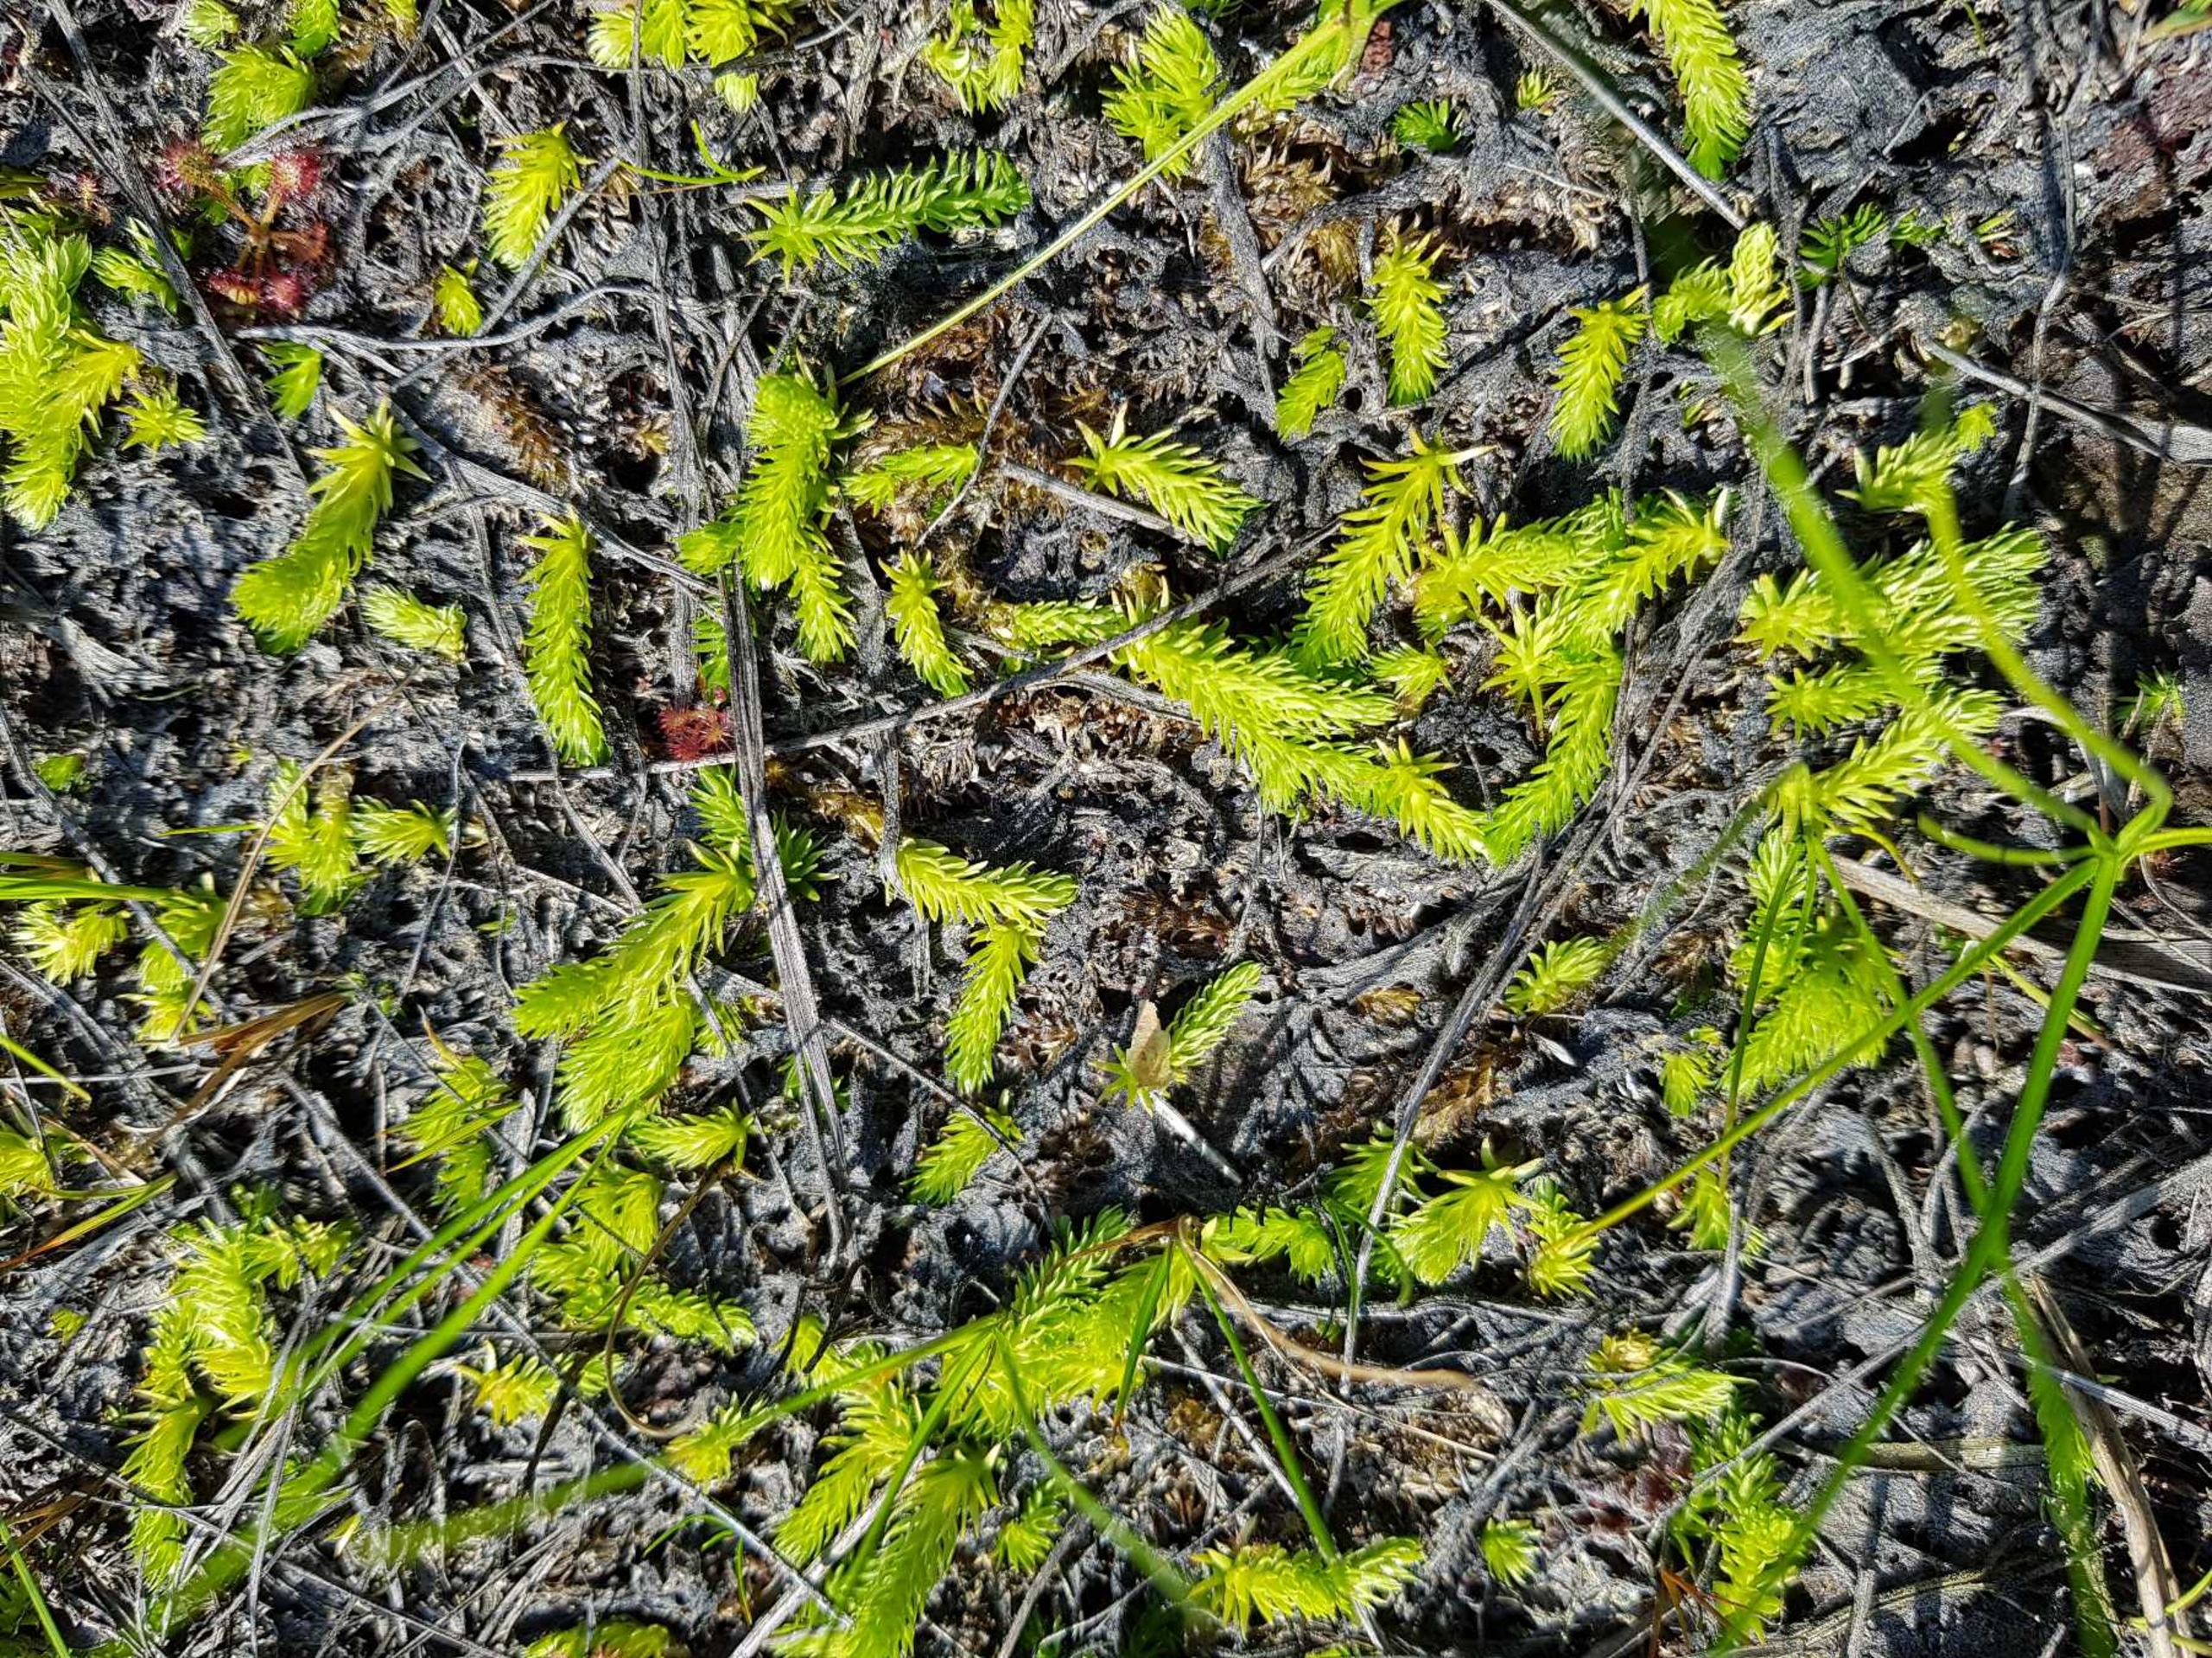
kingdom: Plantae
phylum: Tracheophyta
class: Lycopodiopsida
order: Lycopodiales
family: Lycopodiaceae
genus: Lycopodiella
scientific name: Lycopodiella inundata
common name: Liden ulvefod
